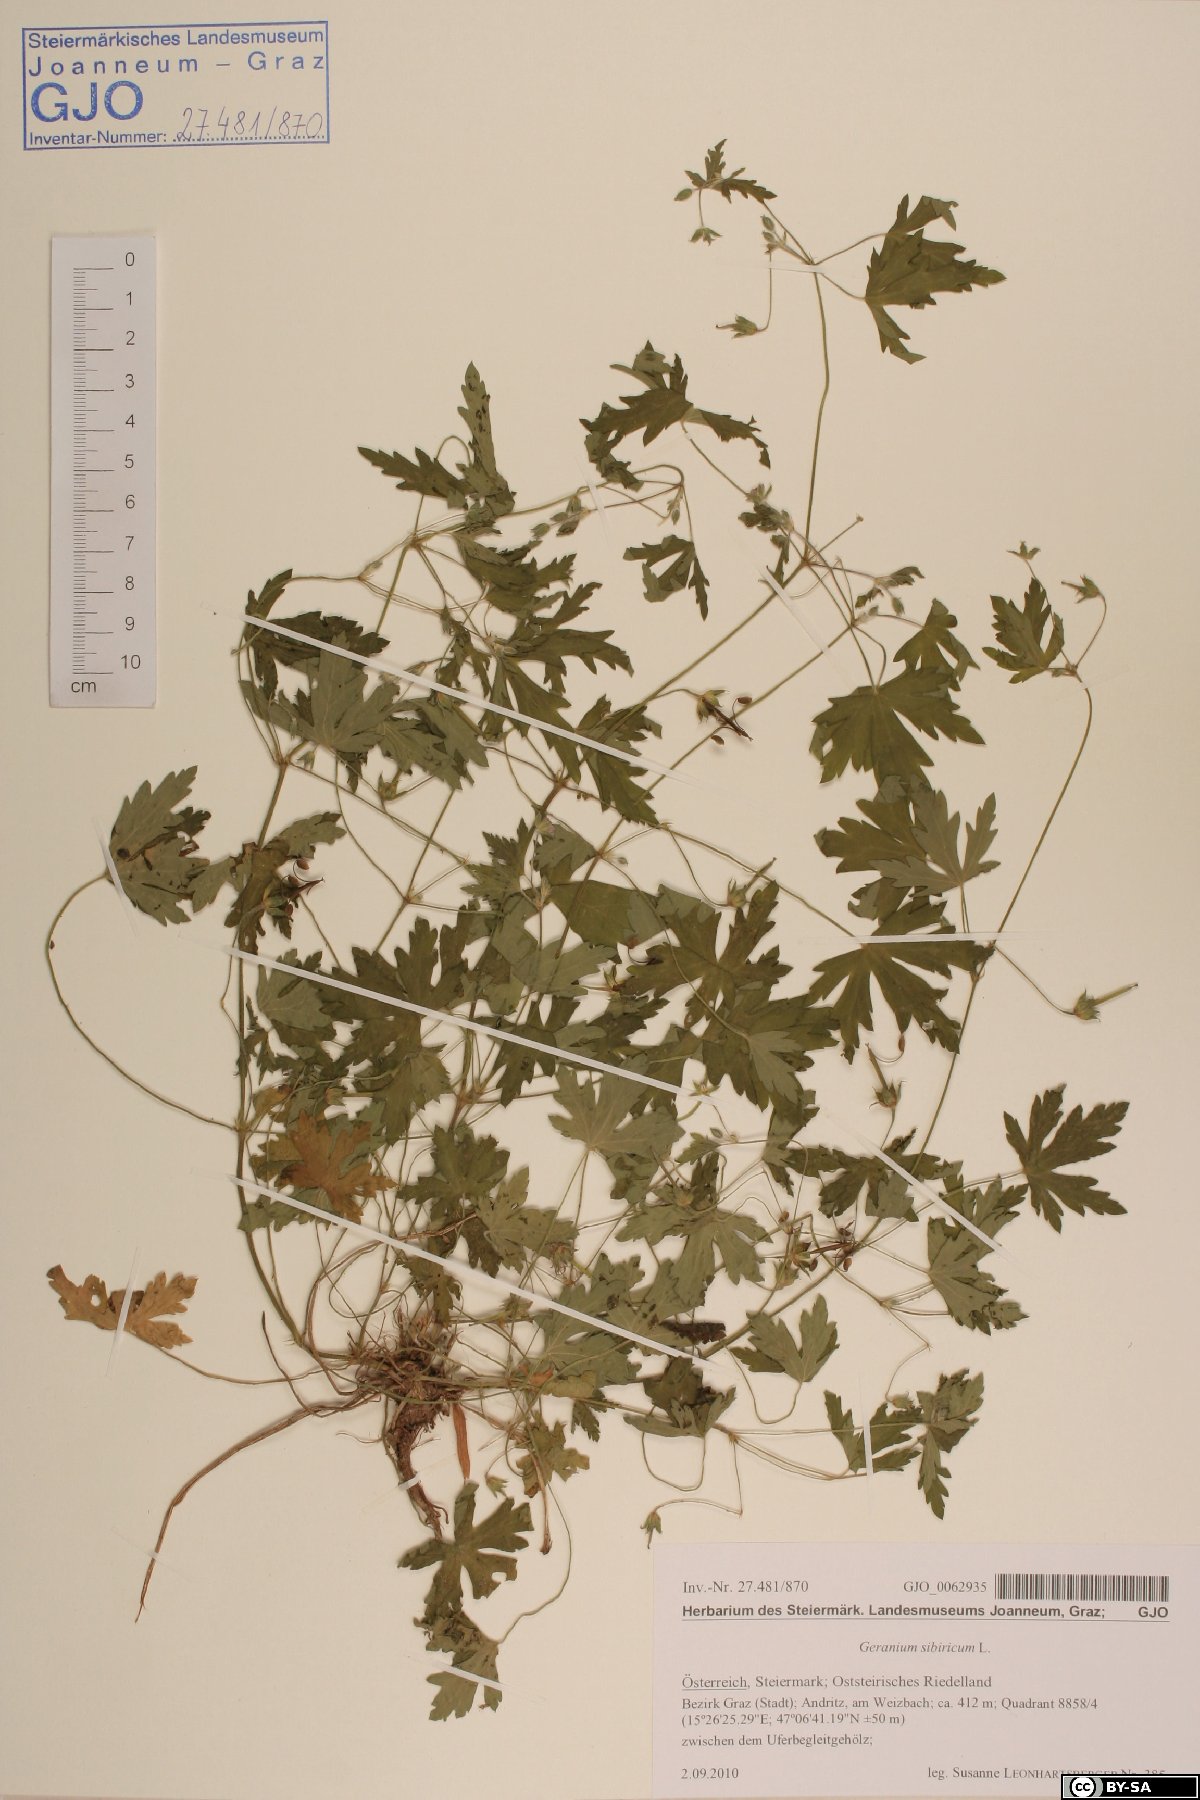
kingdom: Plantae
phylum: Tracheophyta
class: Magnoliopsida
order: Geraniales
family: Geraniaceae
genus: Geranium
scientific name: Geranium sibiricum
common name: Siberian crane's-bill
